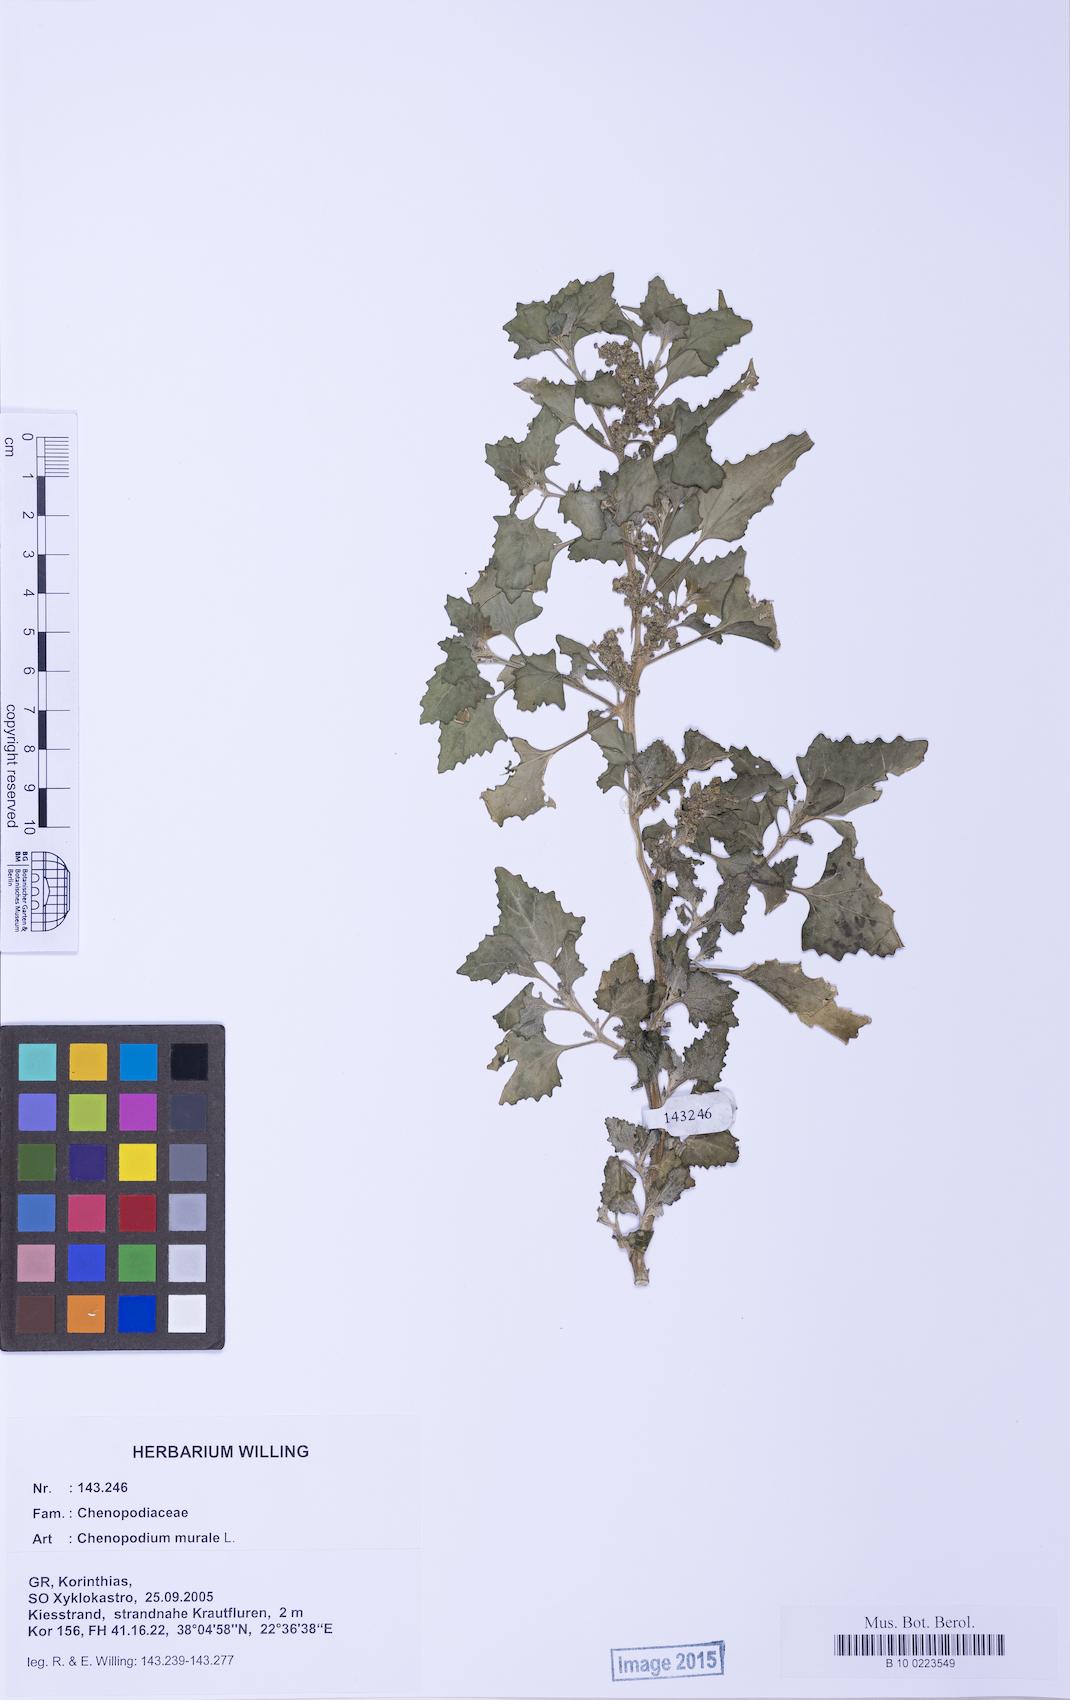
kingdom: Plantae
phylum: Tracheophyta
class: Magnoliopsida
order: Caryophyllales
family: Amaranthaceae
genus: Chenopodiastrum
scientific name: Chenopodiastrum murale
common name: Sowbane
